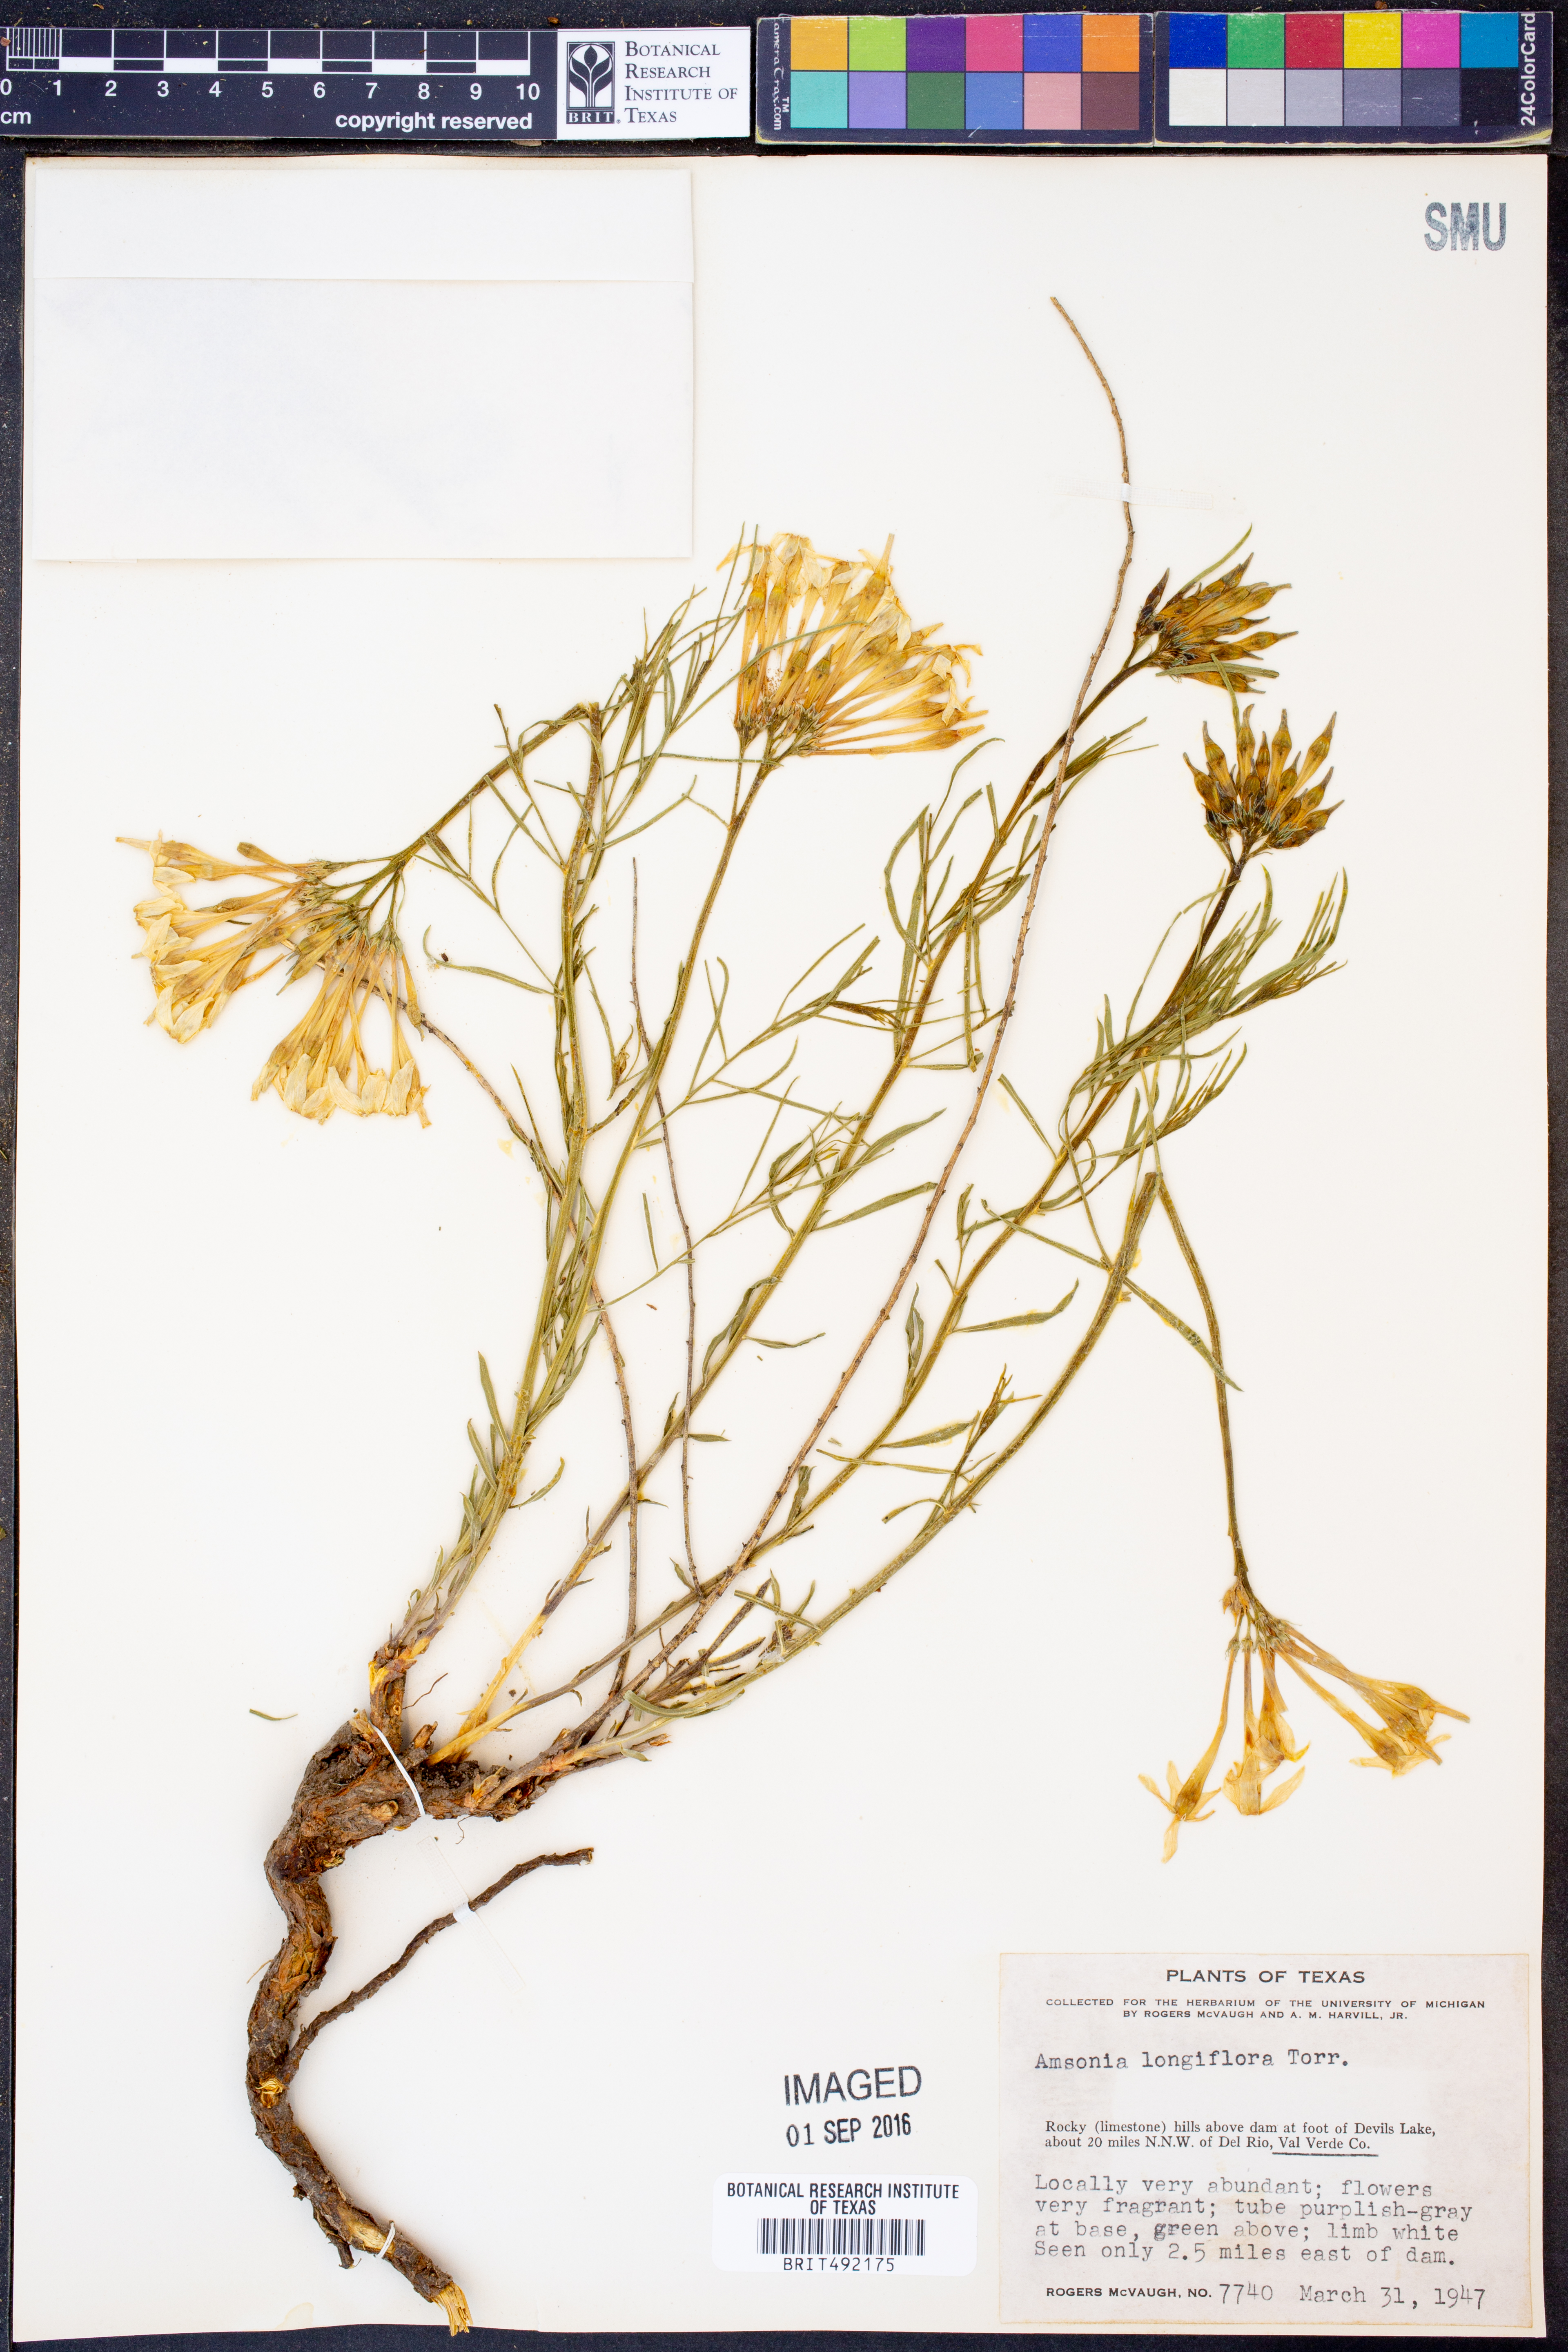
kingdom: Plantae
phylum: Tracheophyta
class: Magnoliopsida
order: Gentianales
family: Apocynaceae
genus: Amsonia
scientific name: Amsonia longiflora
